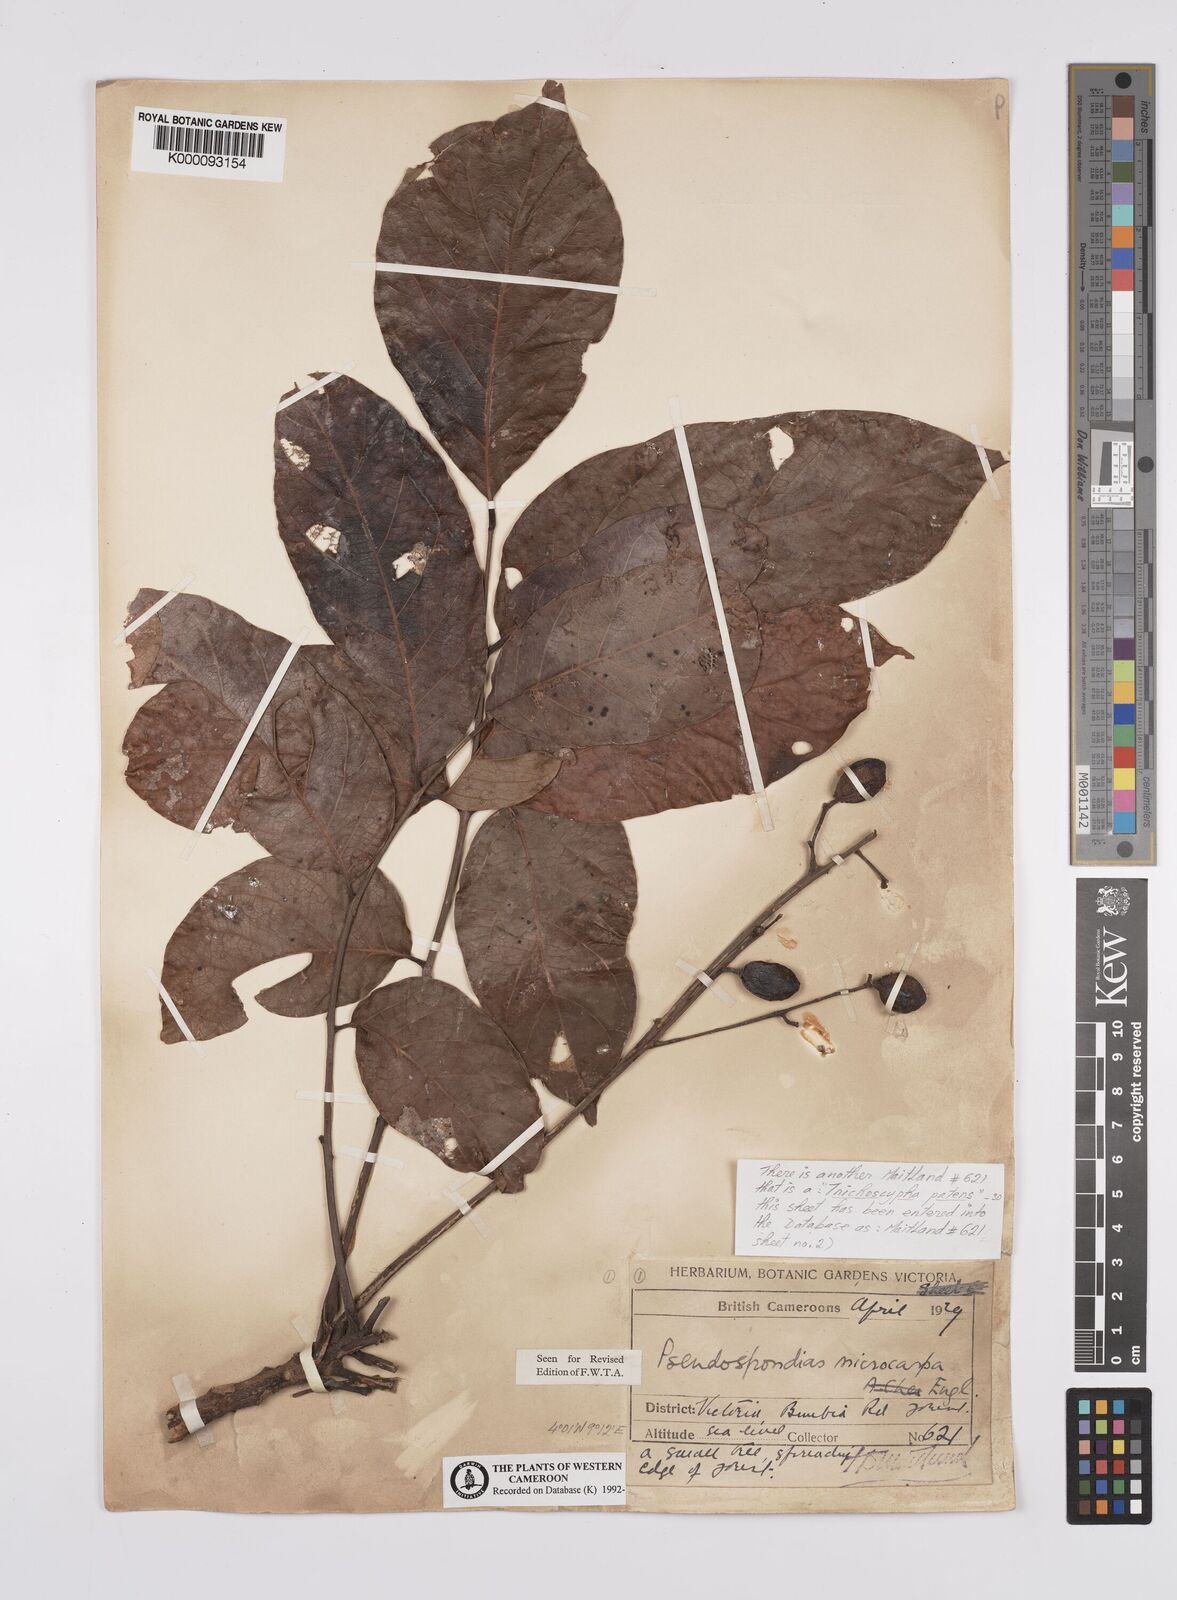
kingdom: Plantae
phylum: Tracheophyta
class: Magnoliopsida
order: Sapindales
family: Anacardiaceae
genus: Trichoscypha
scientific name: Trichoscypha patens
